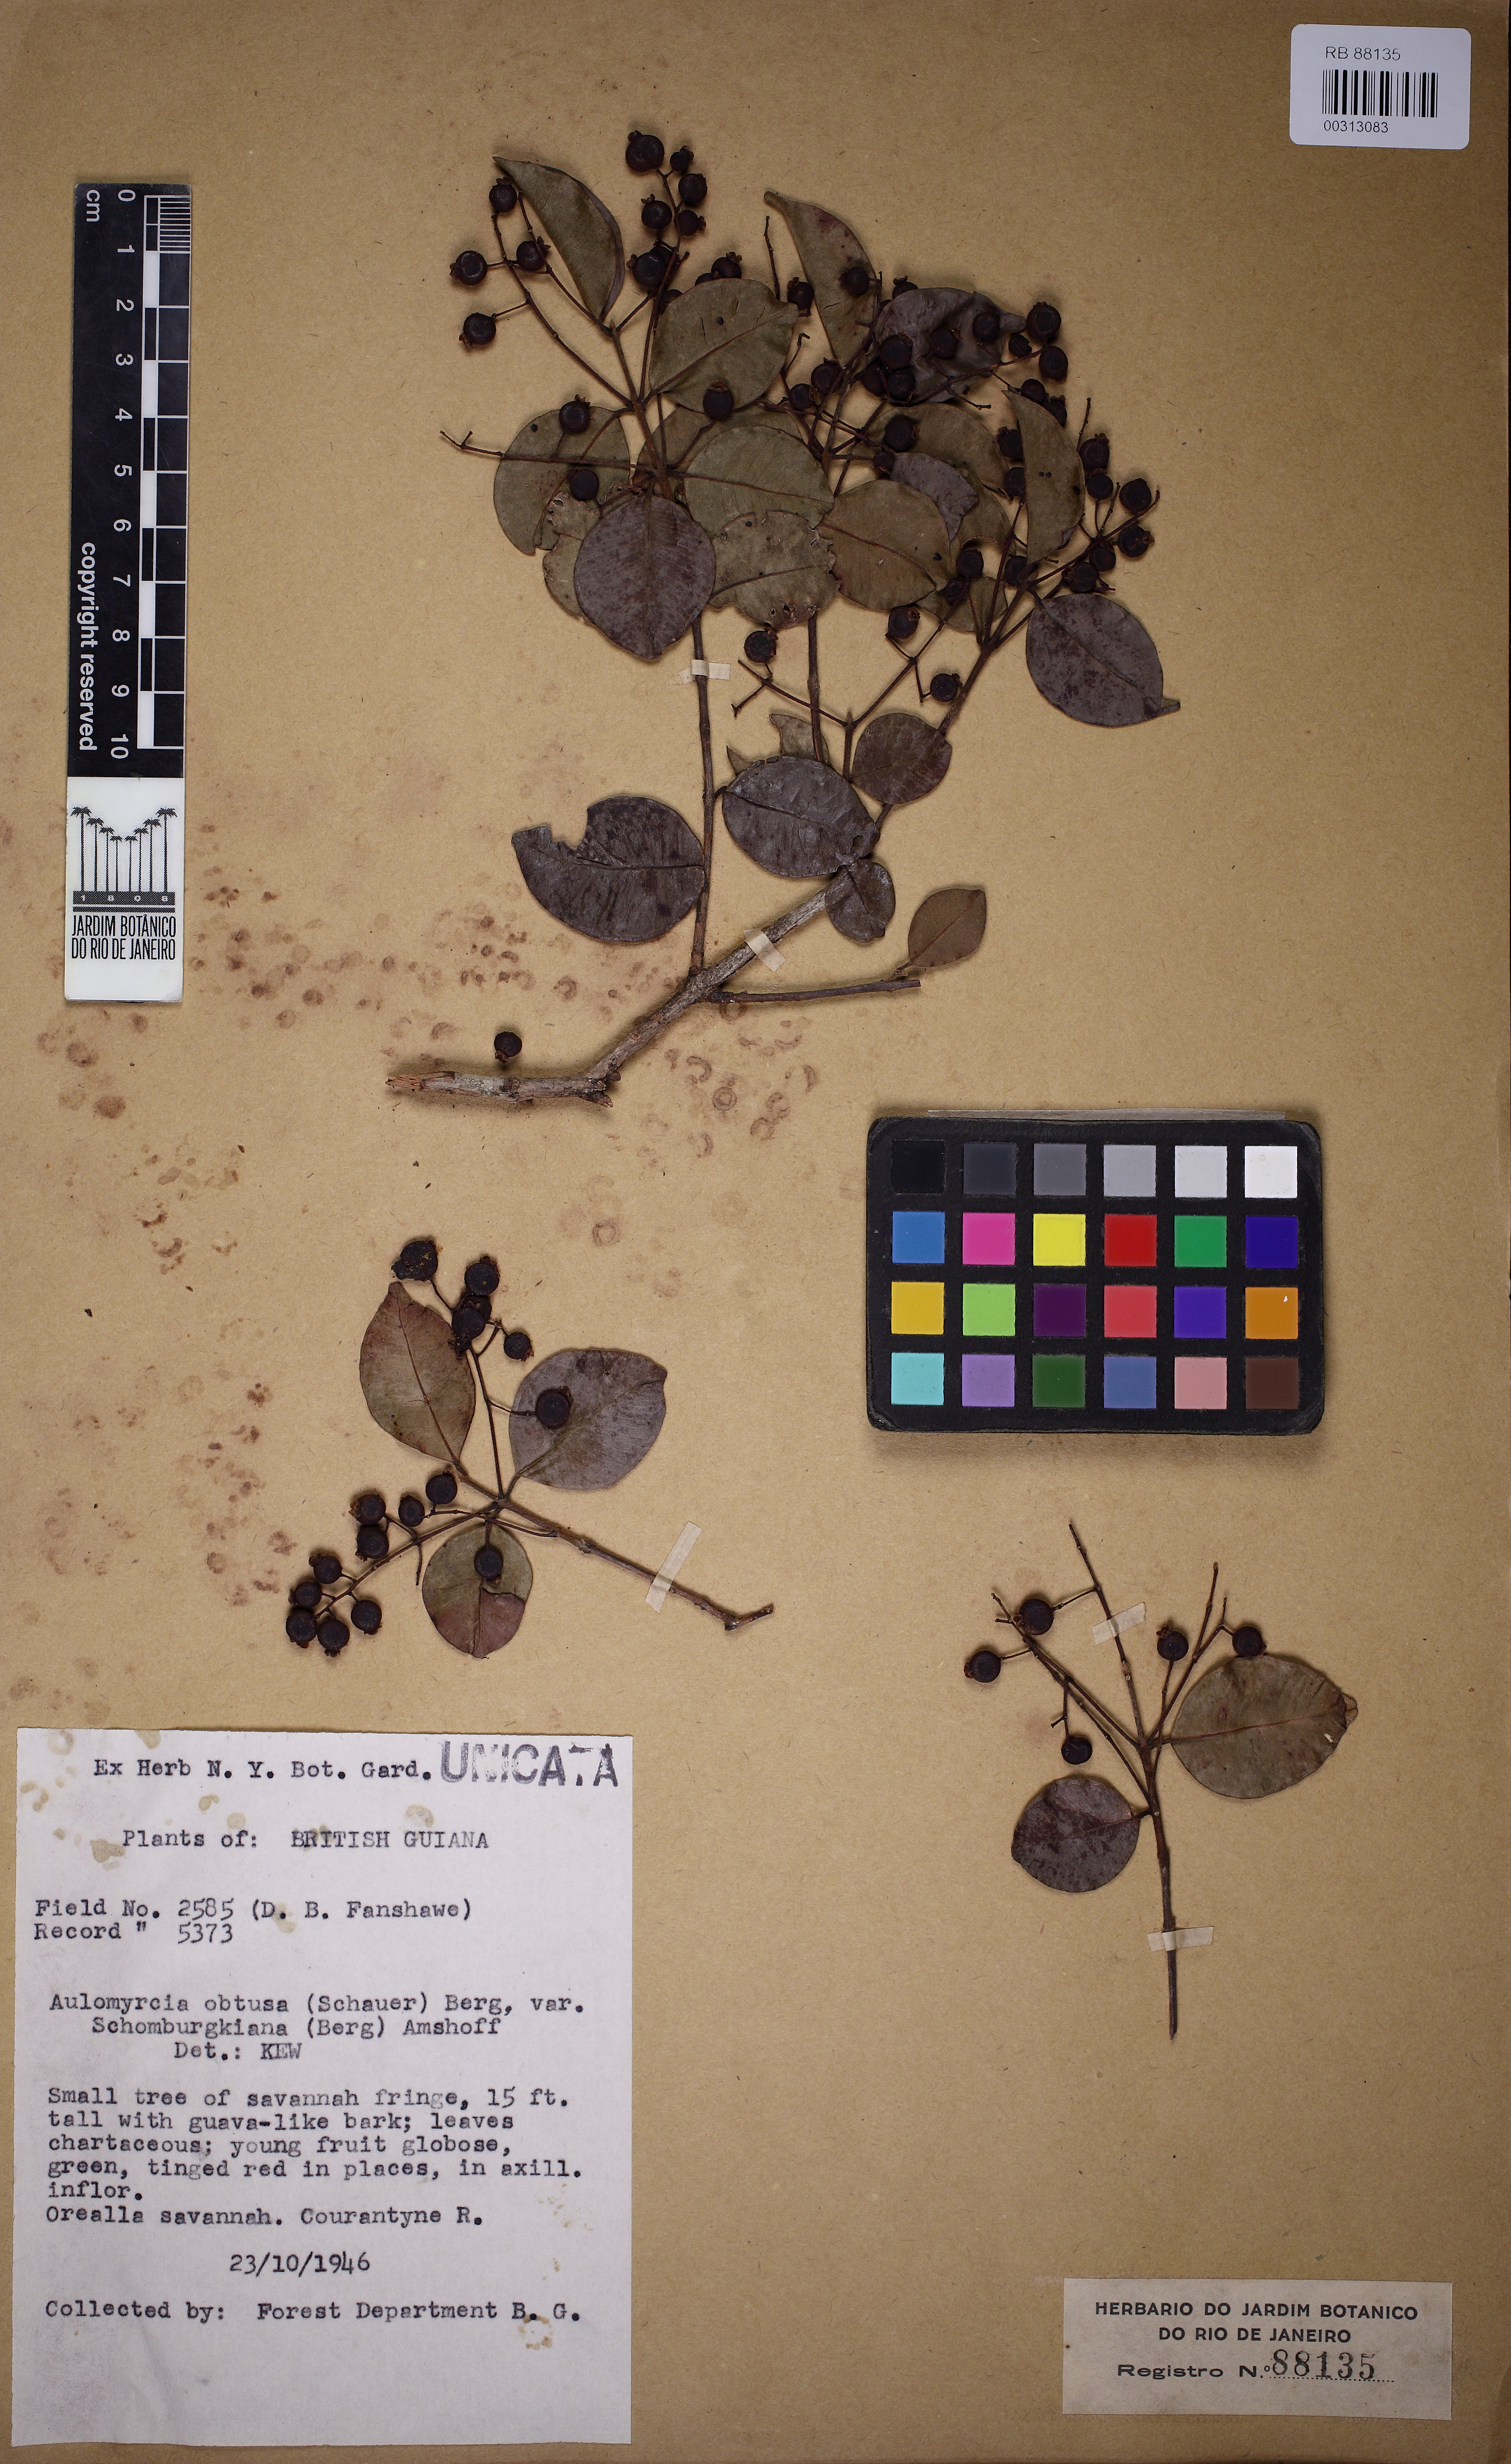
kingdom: Plantae
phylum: Tracheophyta
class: Magnoliopsida
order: Myrtales
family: Myrtaceae
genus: Myrcia
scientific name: Myrcia guianensis
